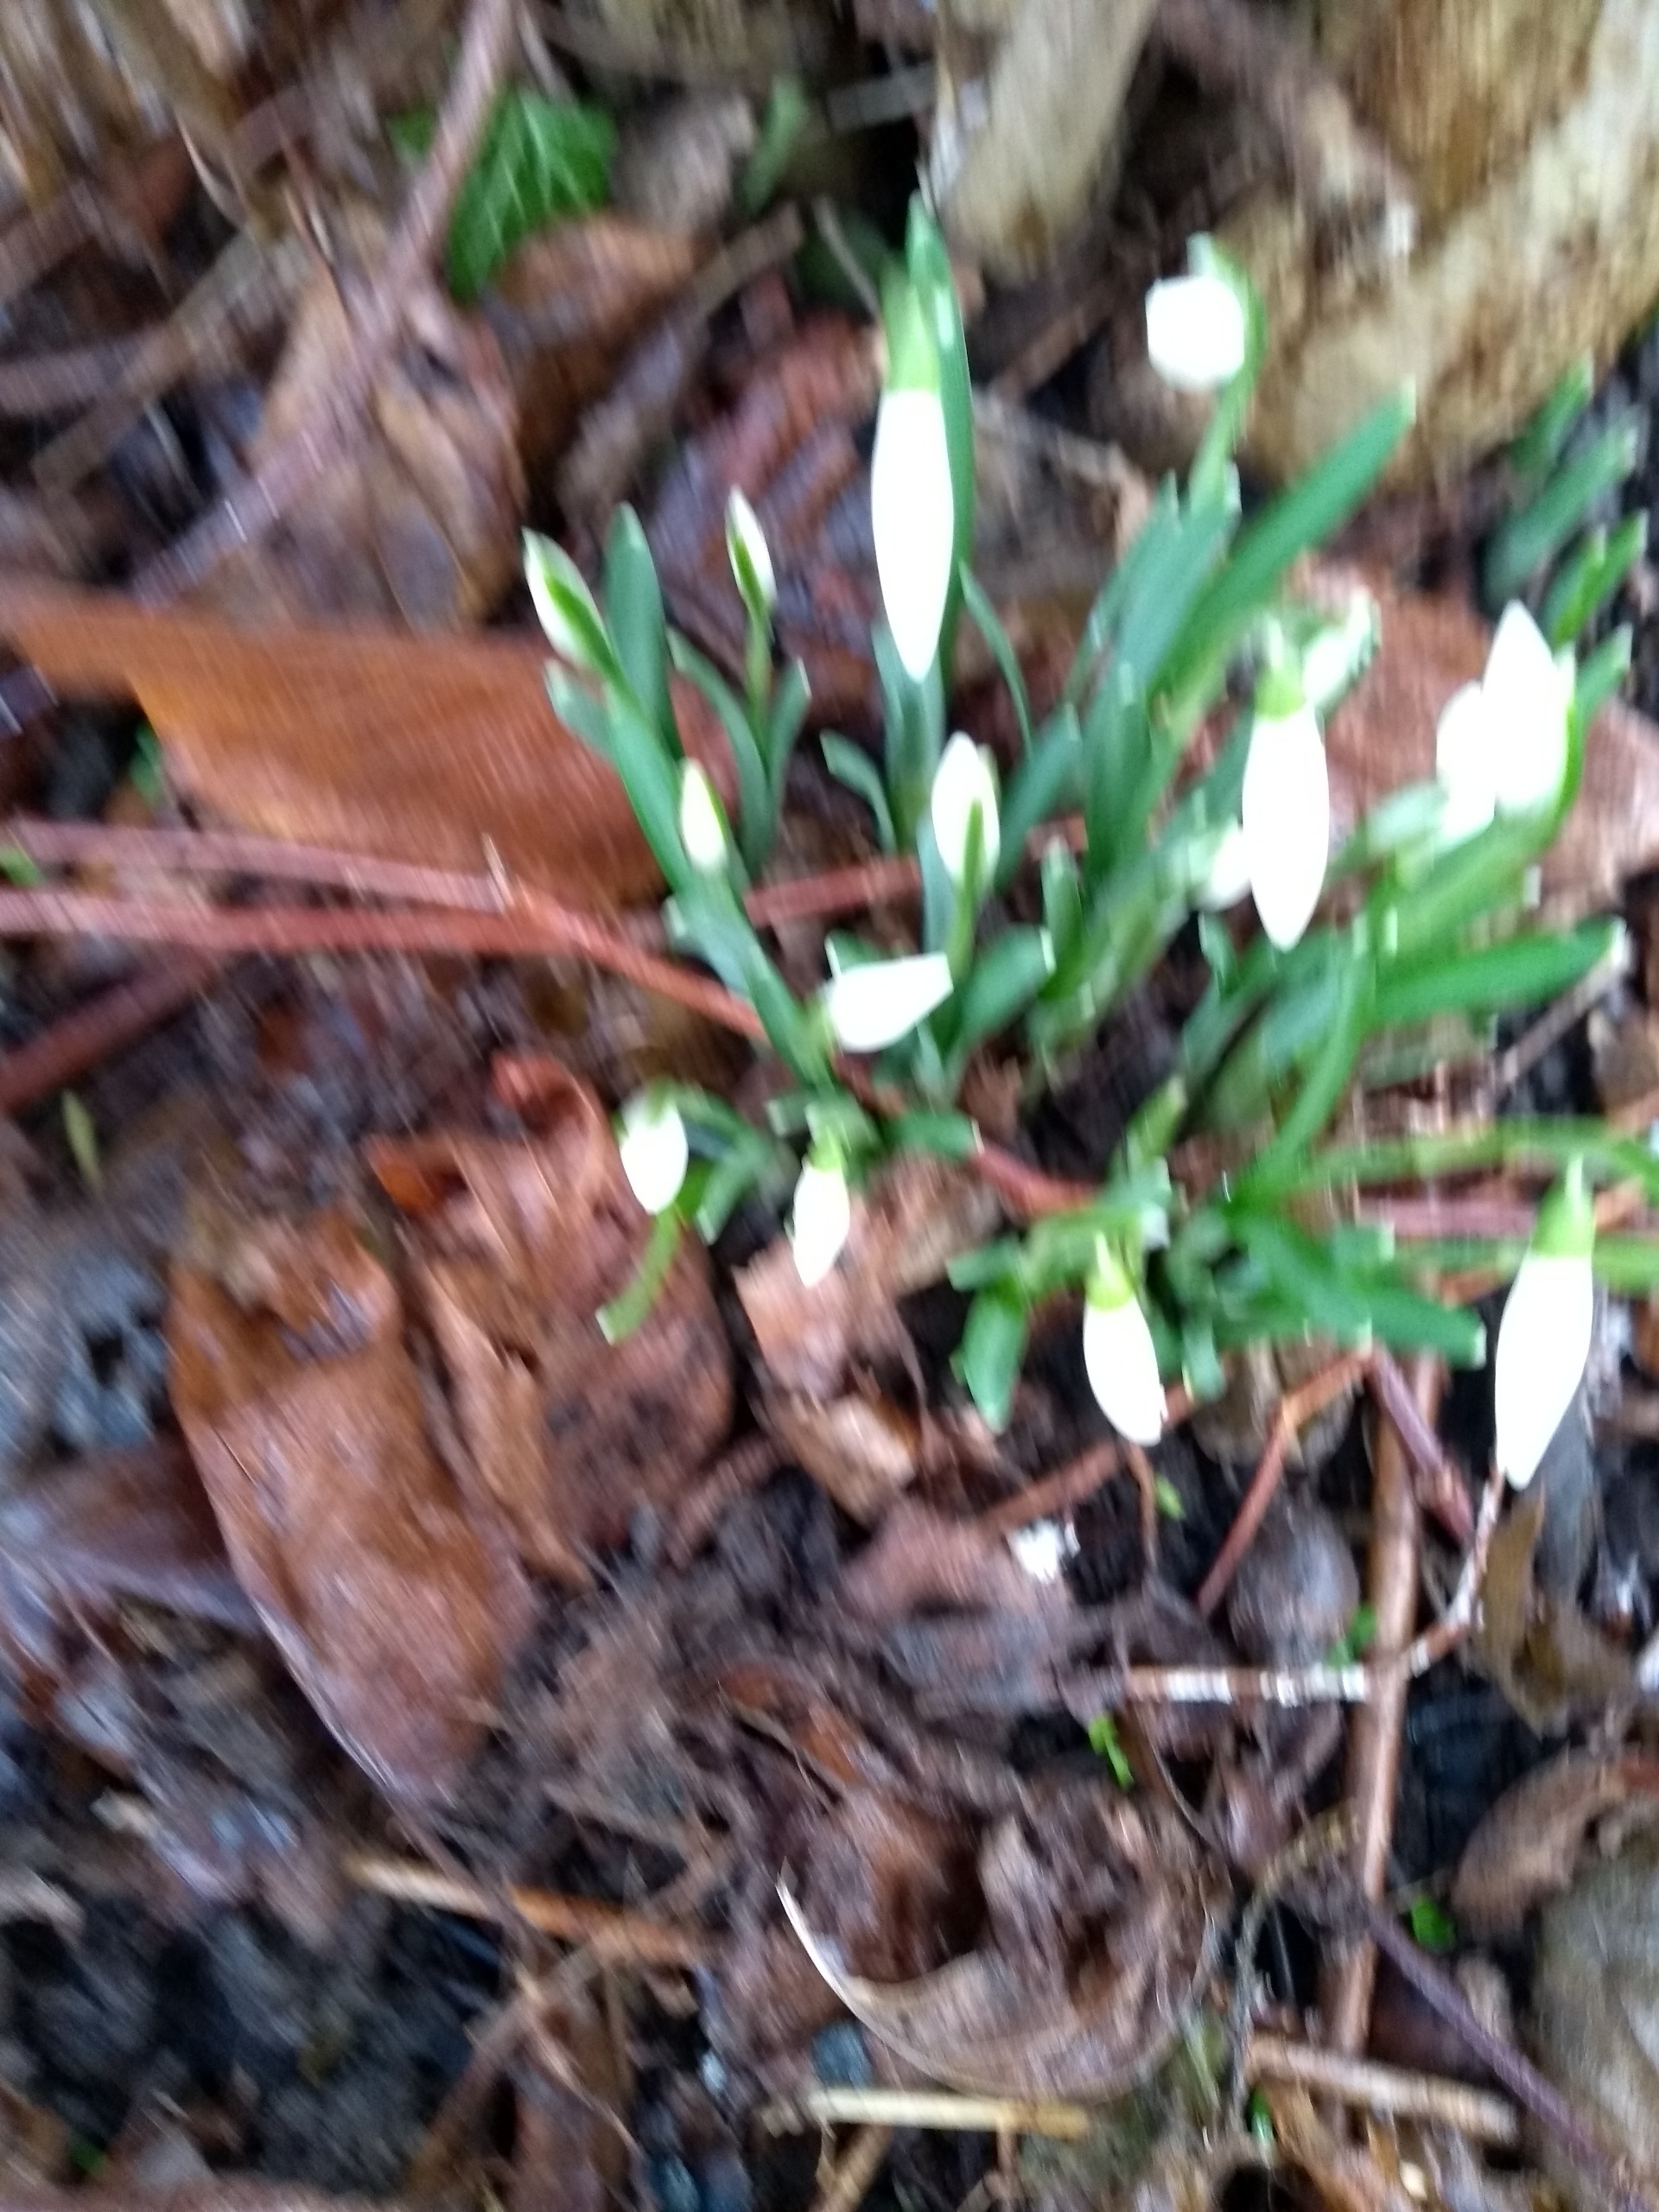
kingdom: Plantae
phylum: Tracheophyta
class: Liliopsida
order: Asparagales
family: Amaryllidaceae
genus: Galanthus
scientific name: Galanthus nivalis
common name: Vintergæk
